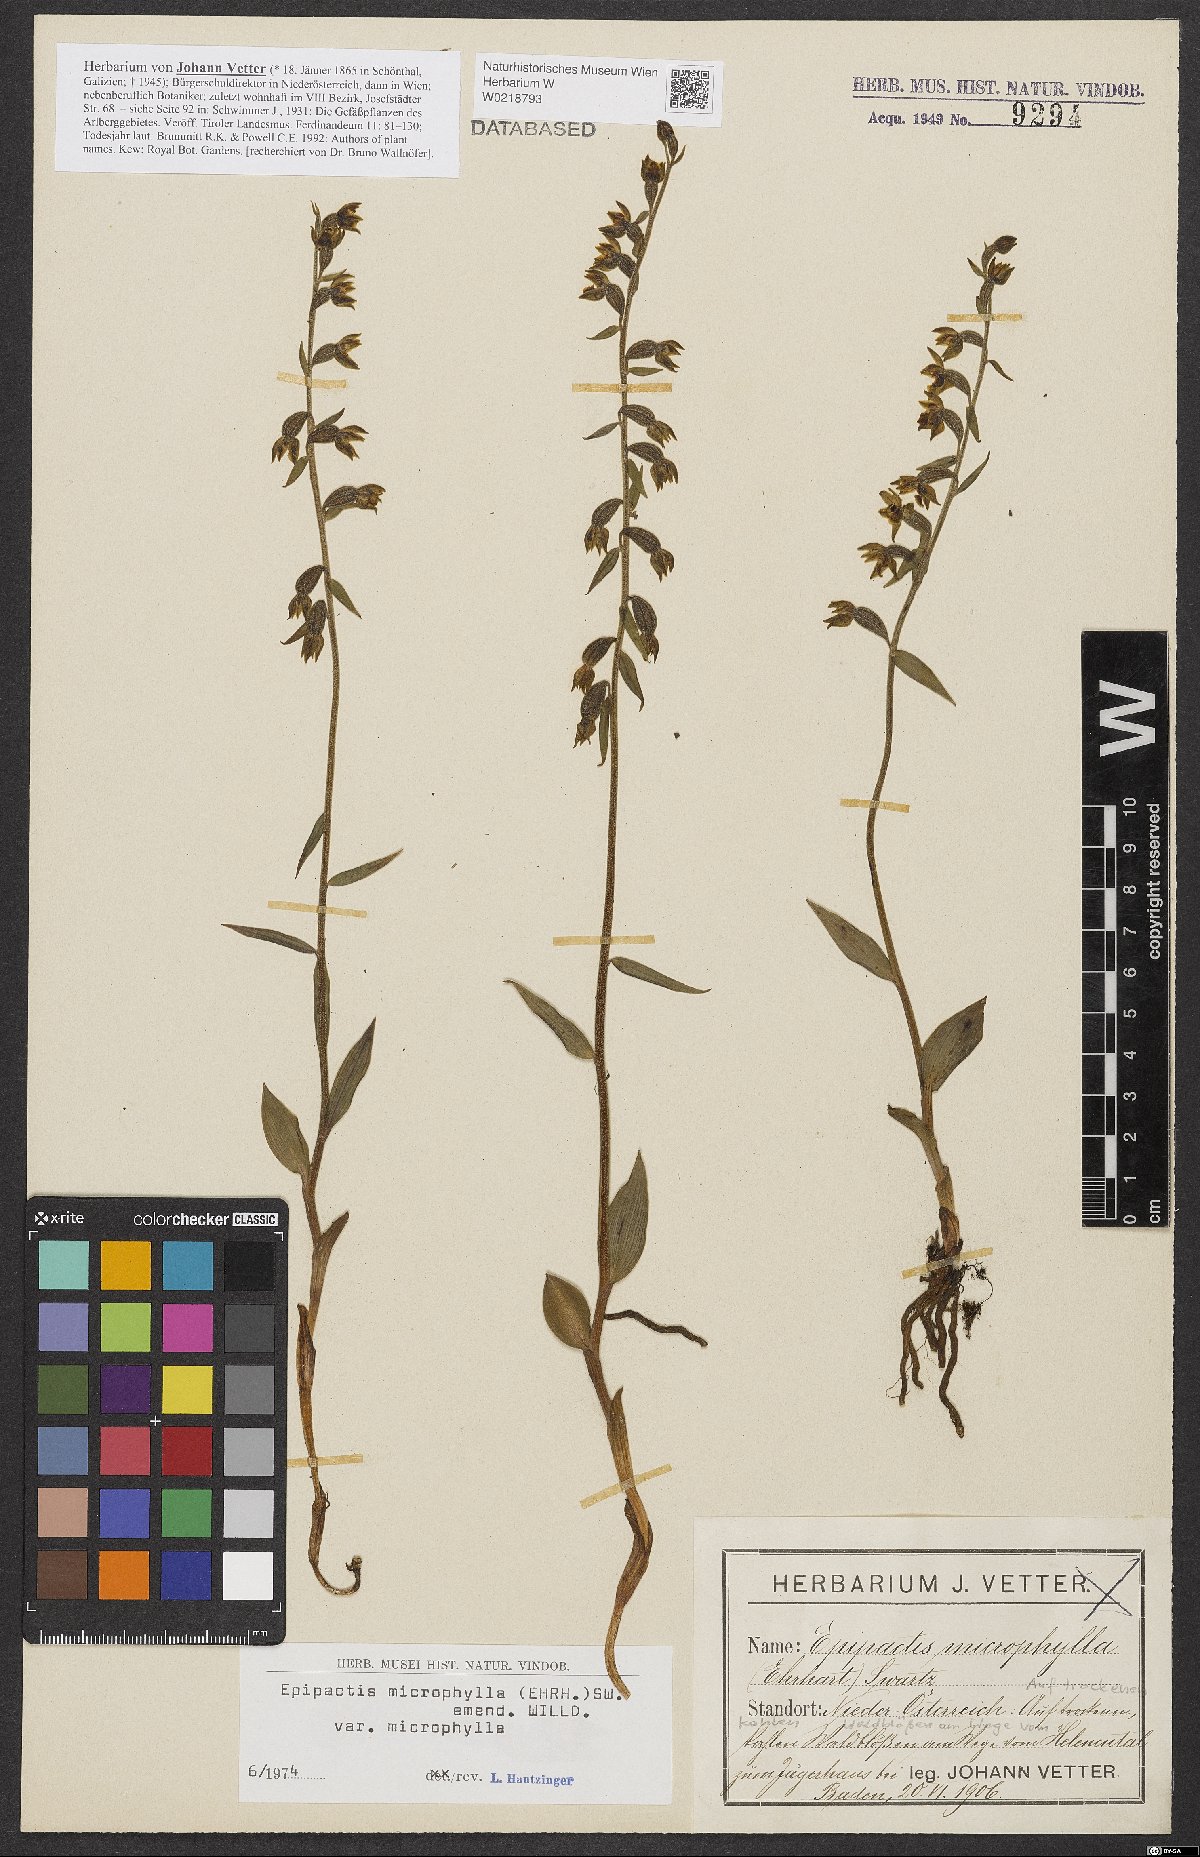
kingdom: Plantae
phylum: Tracheophyta
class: Liliopsida
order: Asparagales
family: Orchidaceae
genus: Epipactis
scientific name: Epipactis microphylla
